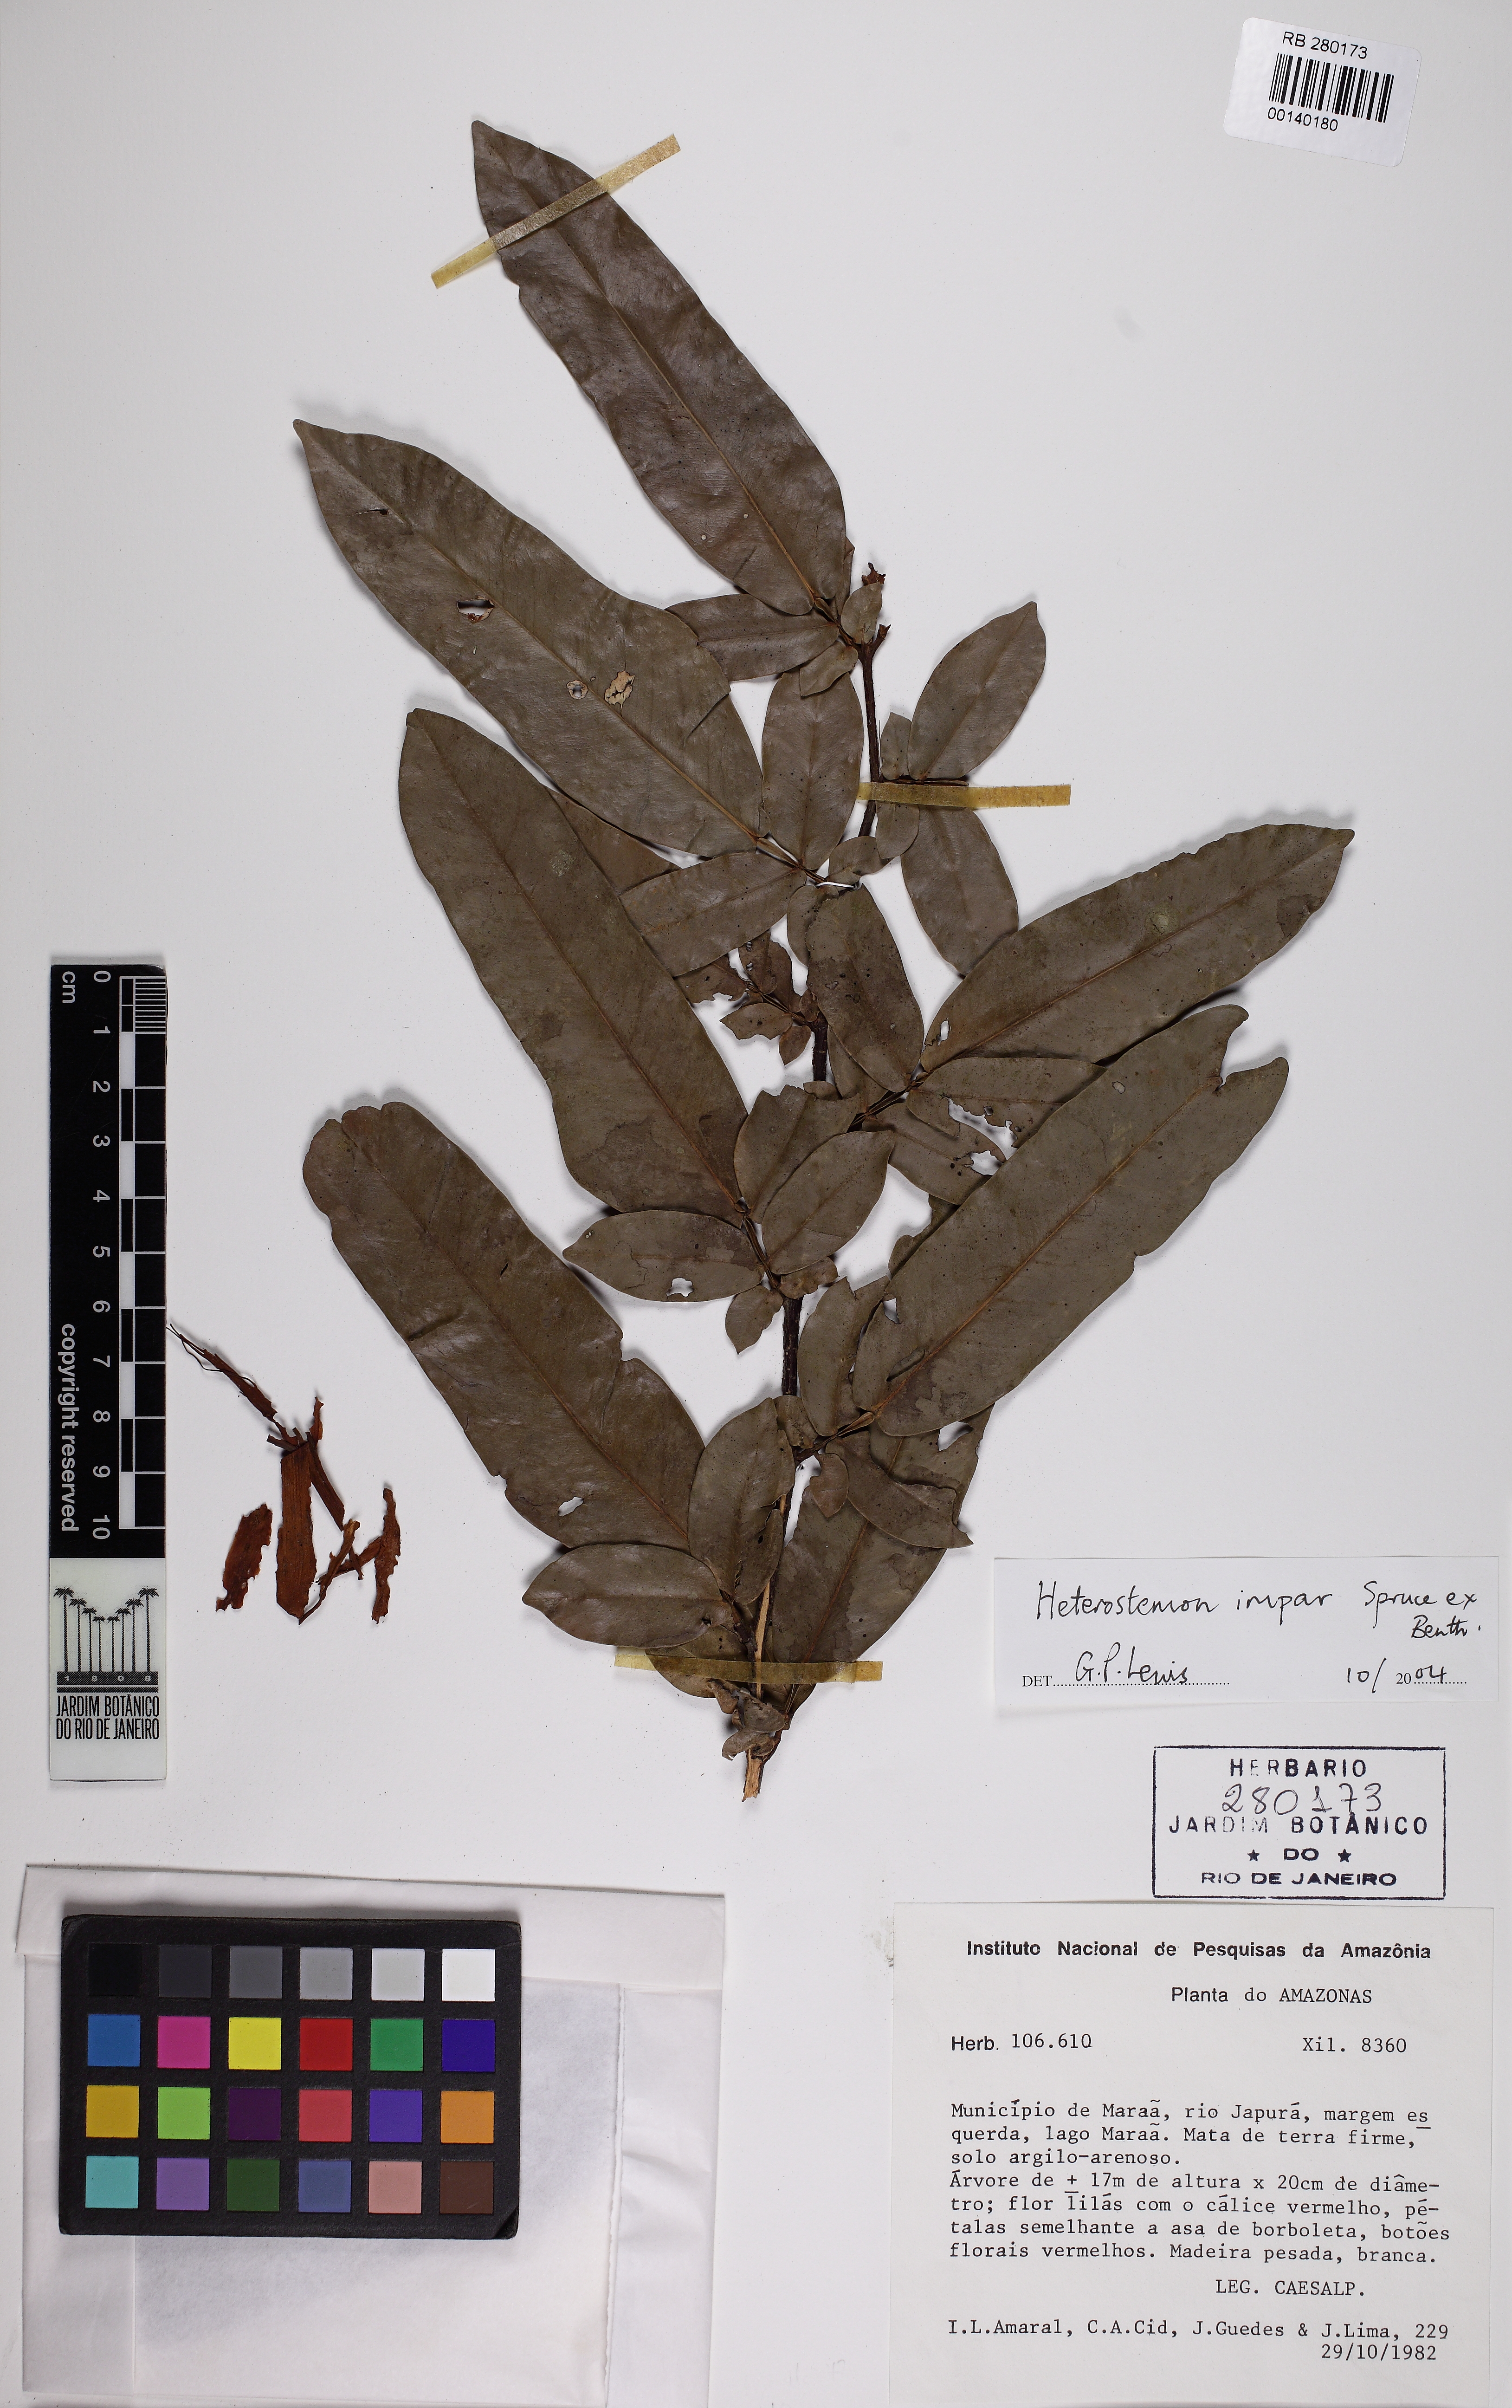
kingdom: Plantae
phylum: Tracheophyta
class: Magnoliopsida
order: Fabales
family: Fabaceae
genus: Heterostemon
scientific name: Heterostemon impar
